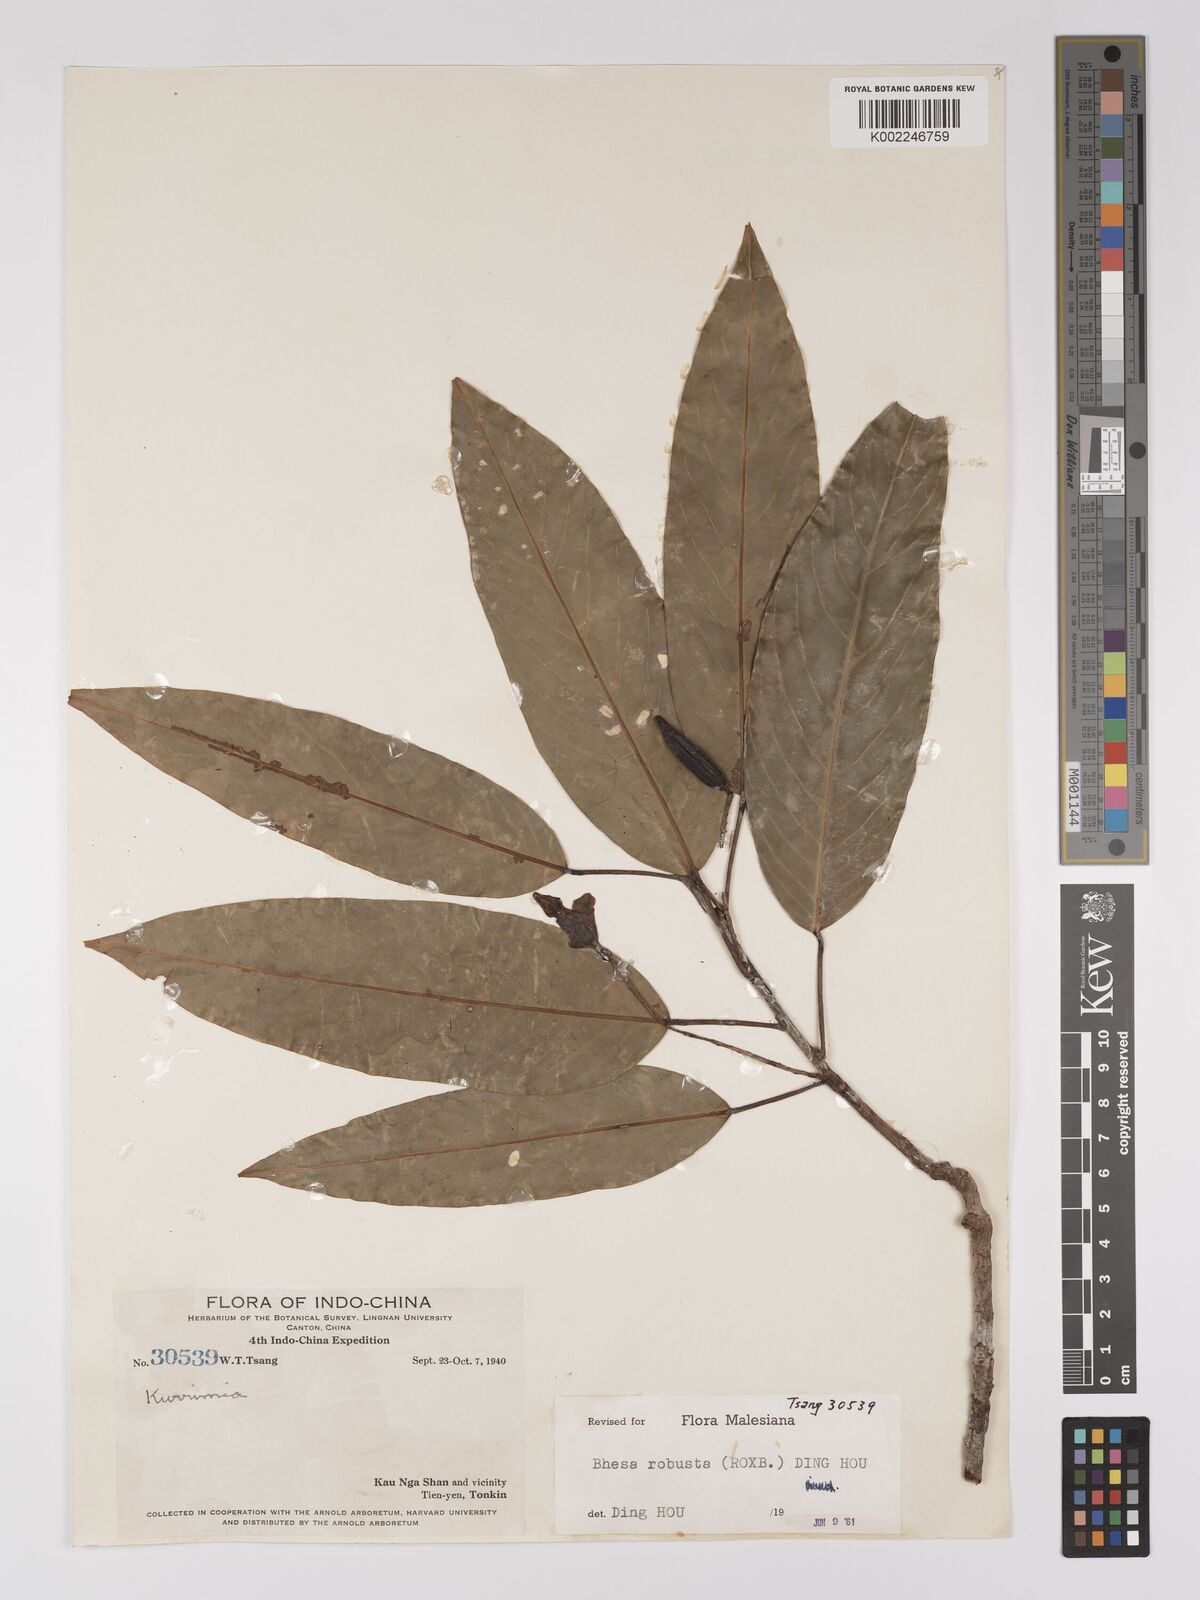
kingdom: Plantae
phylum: Tracheophyta
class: Magnoliopsida
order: Malpighiales
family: Centroplacaceae
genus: Bhesa
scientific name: Bhesa robusta
